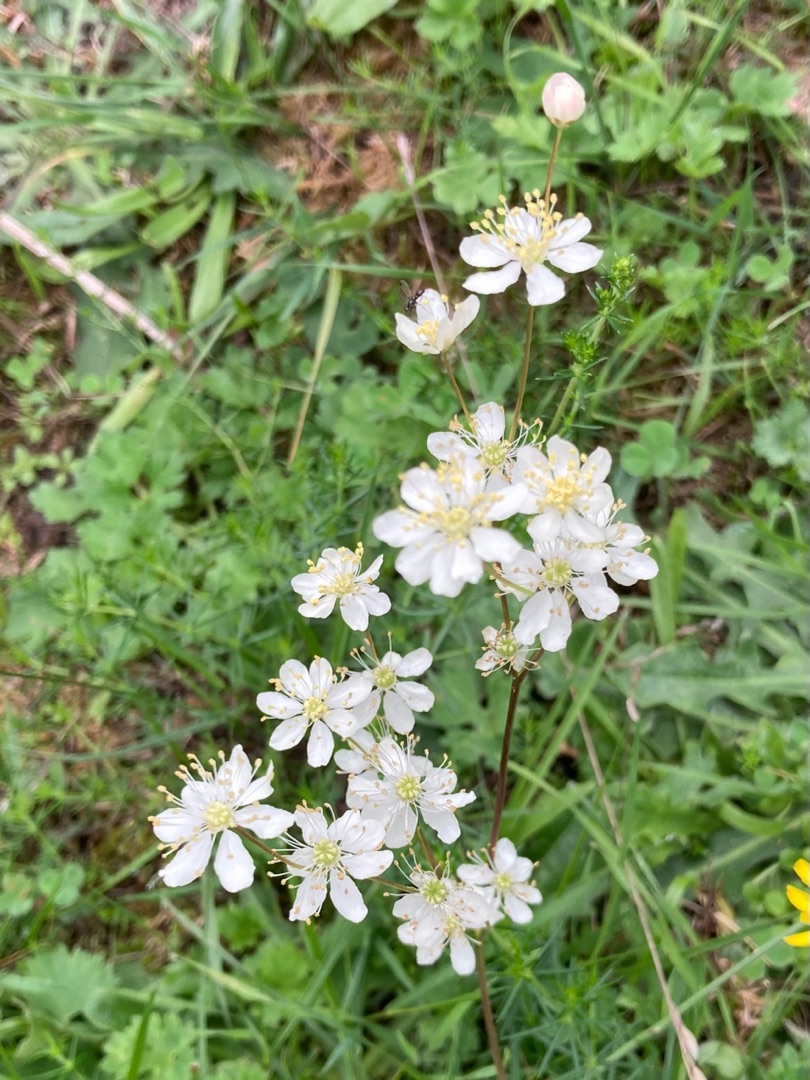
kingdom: Plantae
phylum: Tracheophyta
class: Magnoliopsida
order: Rosales
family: Rosaceae
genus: Filipendula
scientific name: Filipendula vulgaris
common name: Knoldet mjødurt
